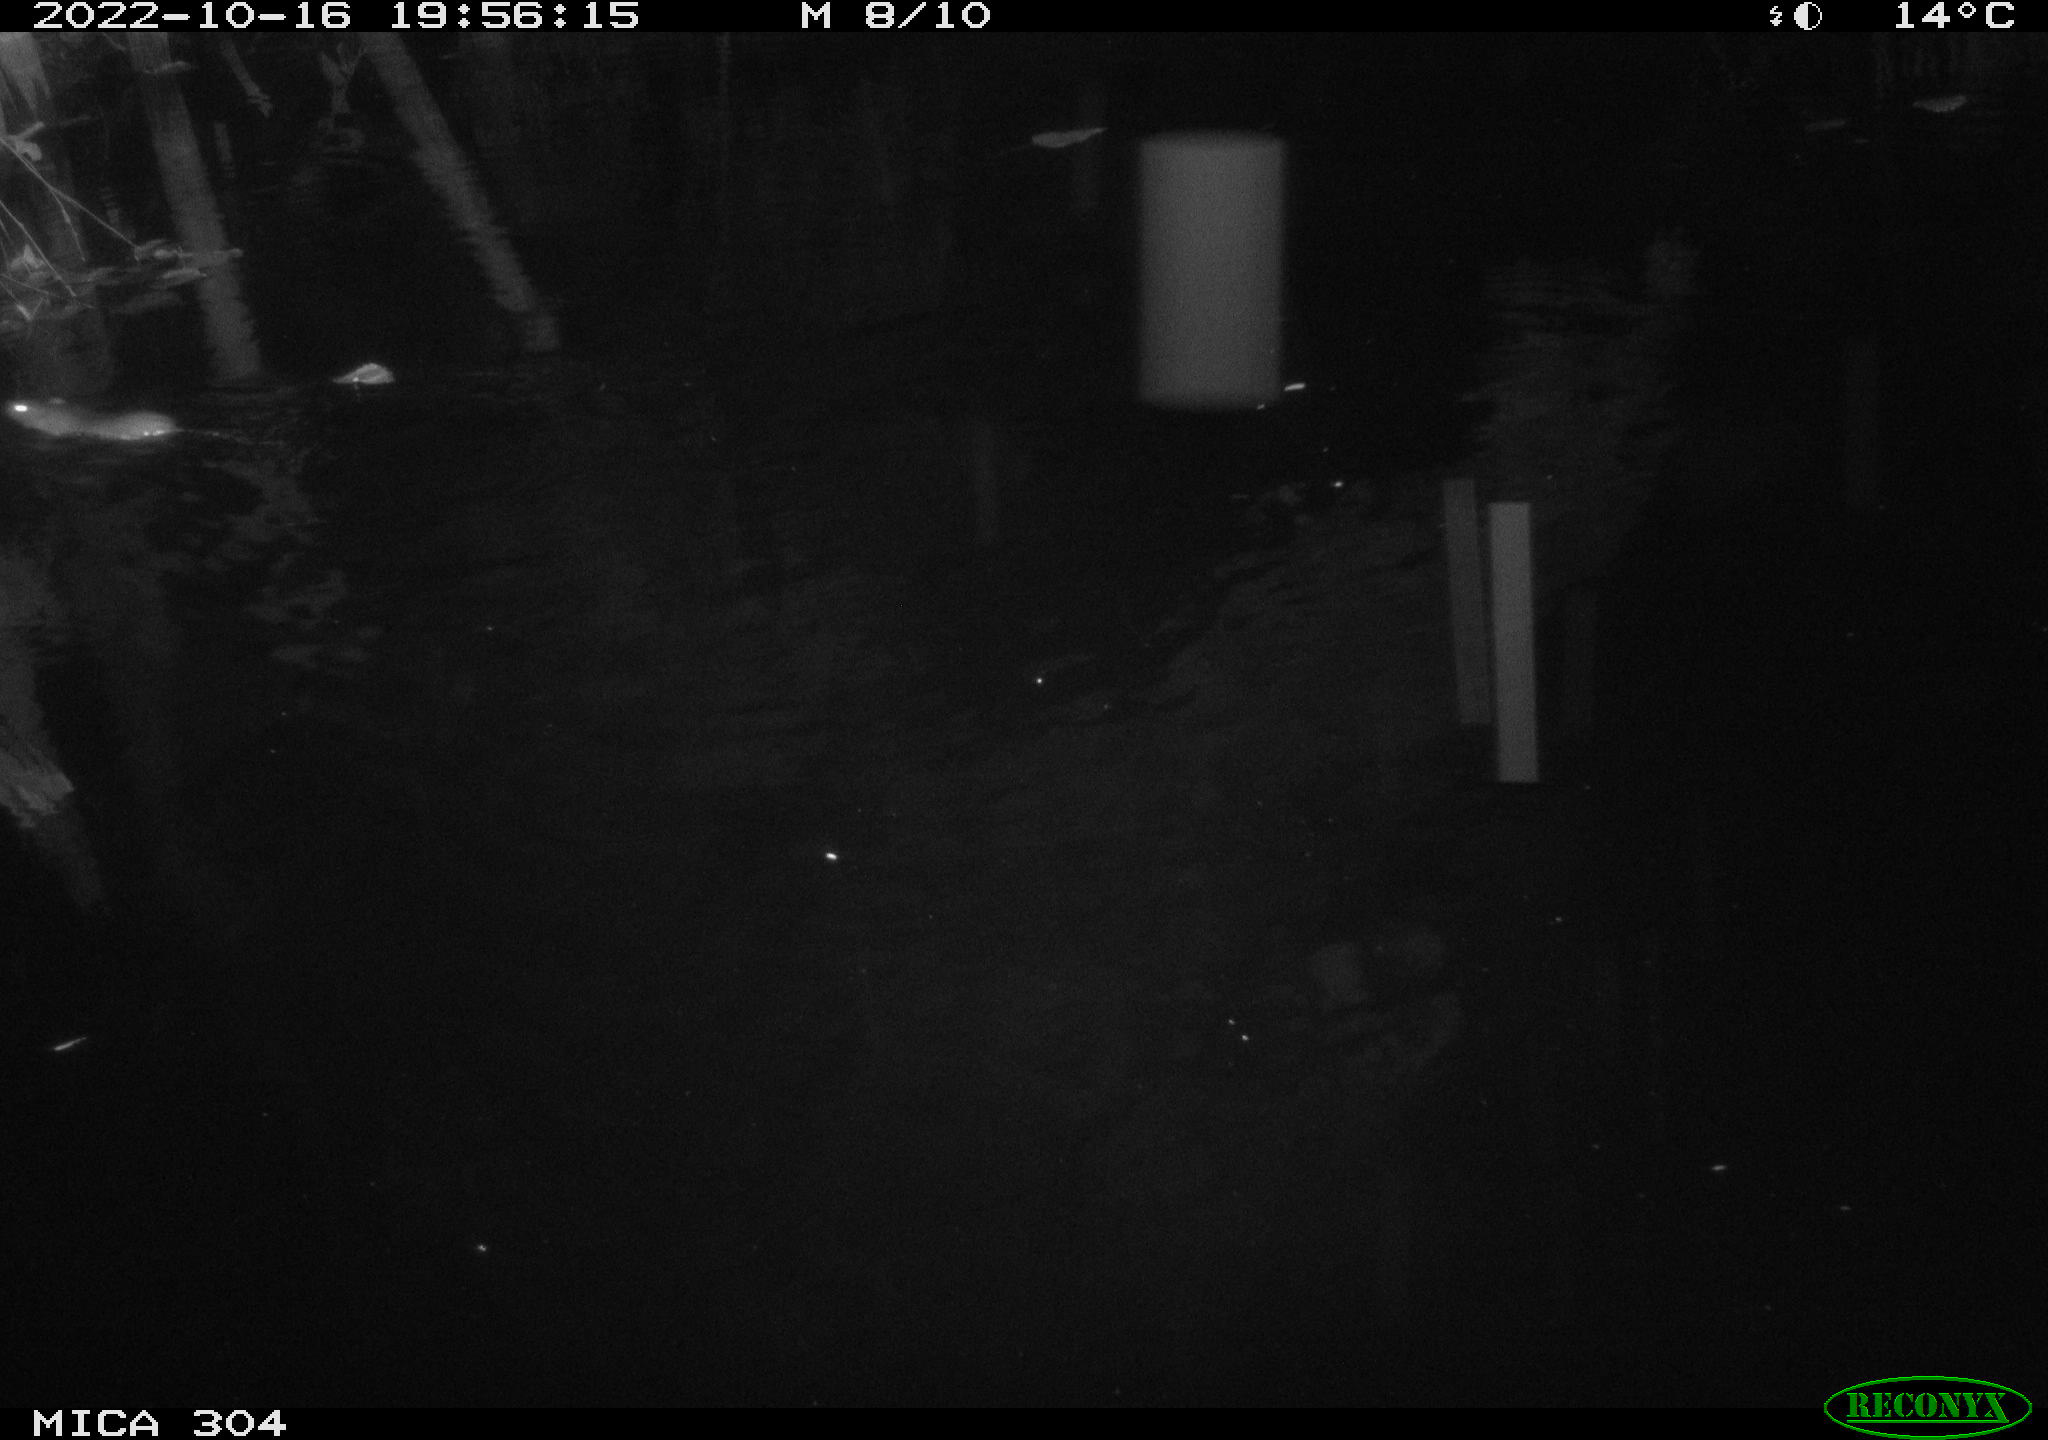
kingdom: Animalia
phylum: Chordata
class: Mammalia
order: Rodentia
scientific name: Rodentia
